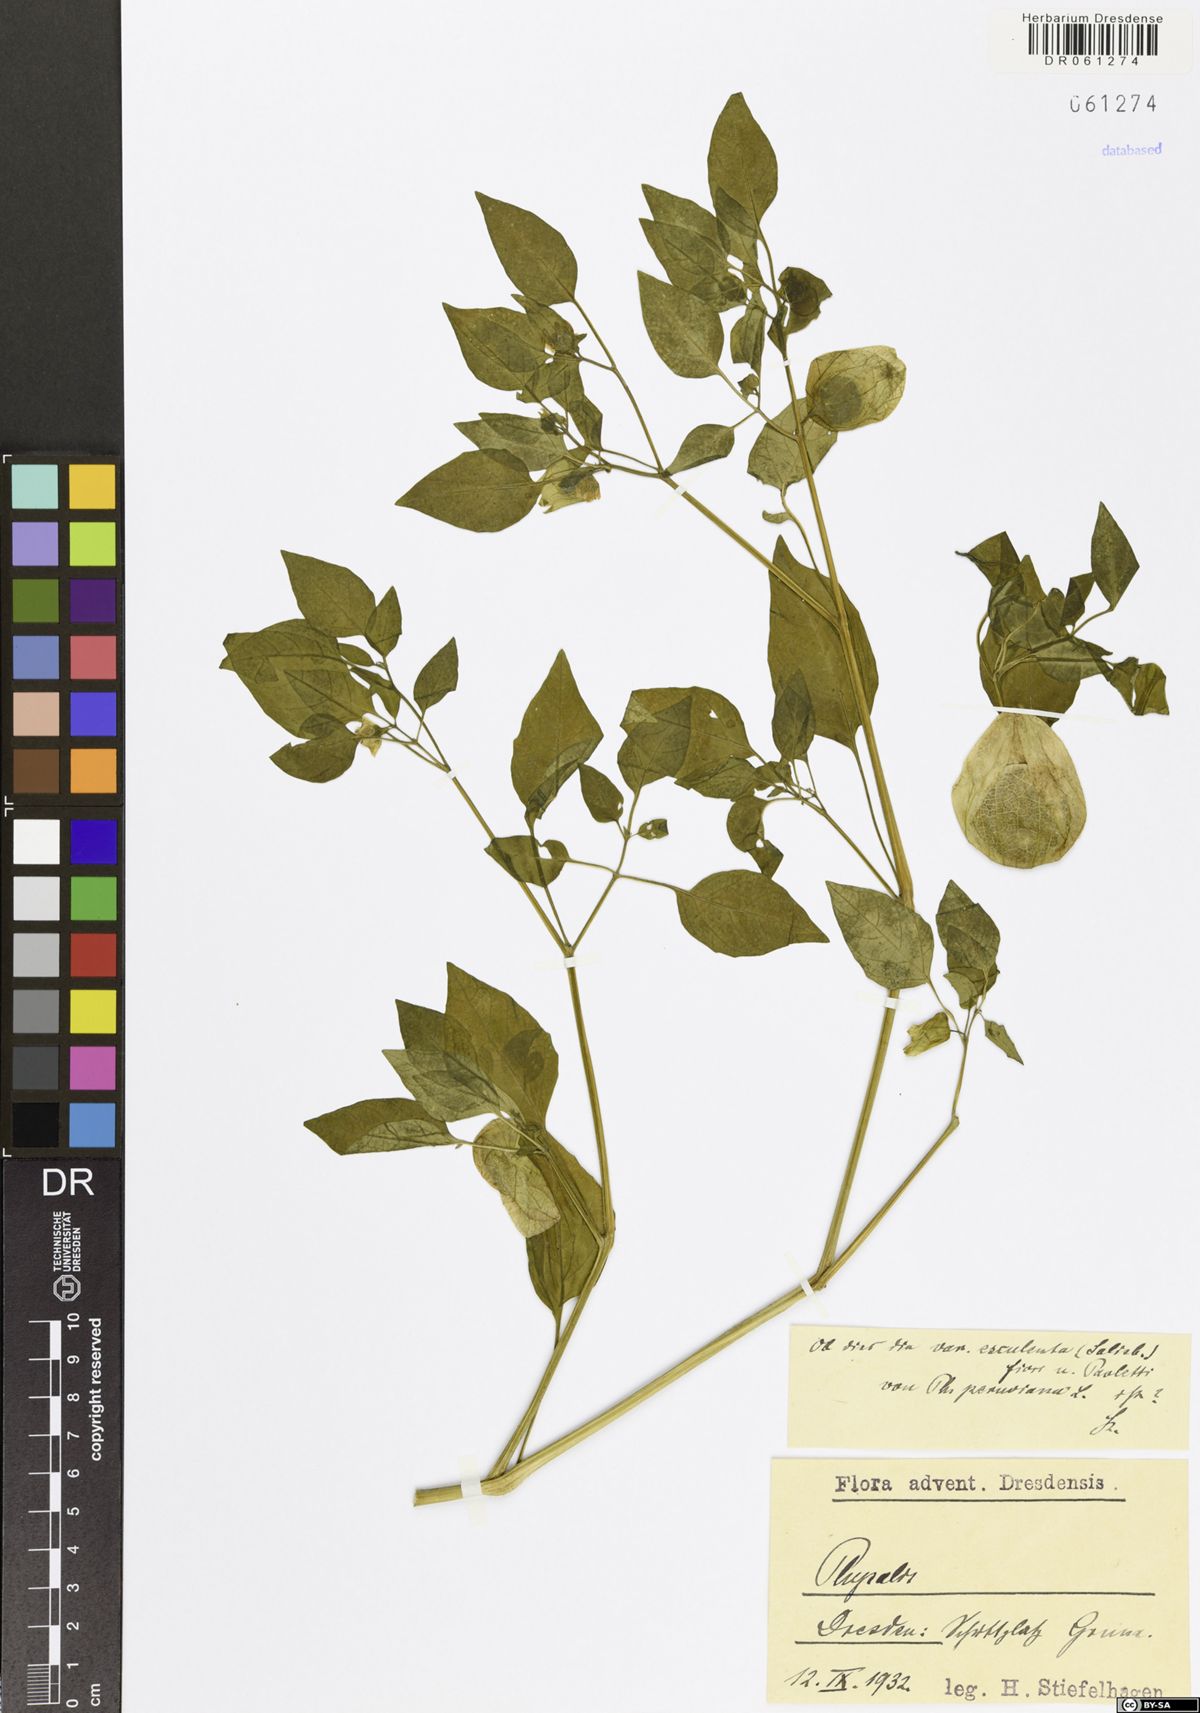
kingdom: Plantae
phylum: Tracheophyta
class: Magnoliopsida
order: Solanales
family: Solanaceae
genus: Physalis
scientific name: Physalis
